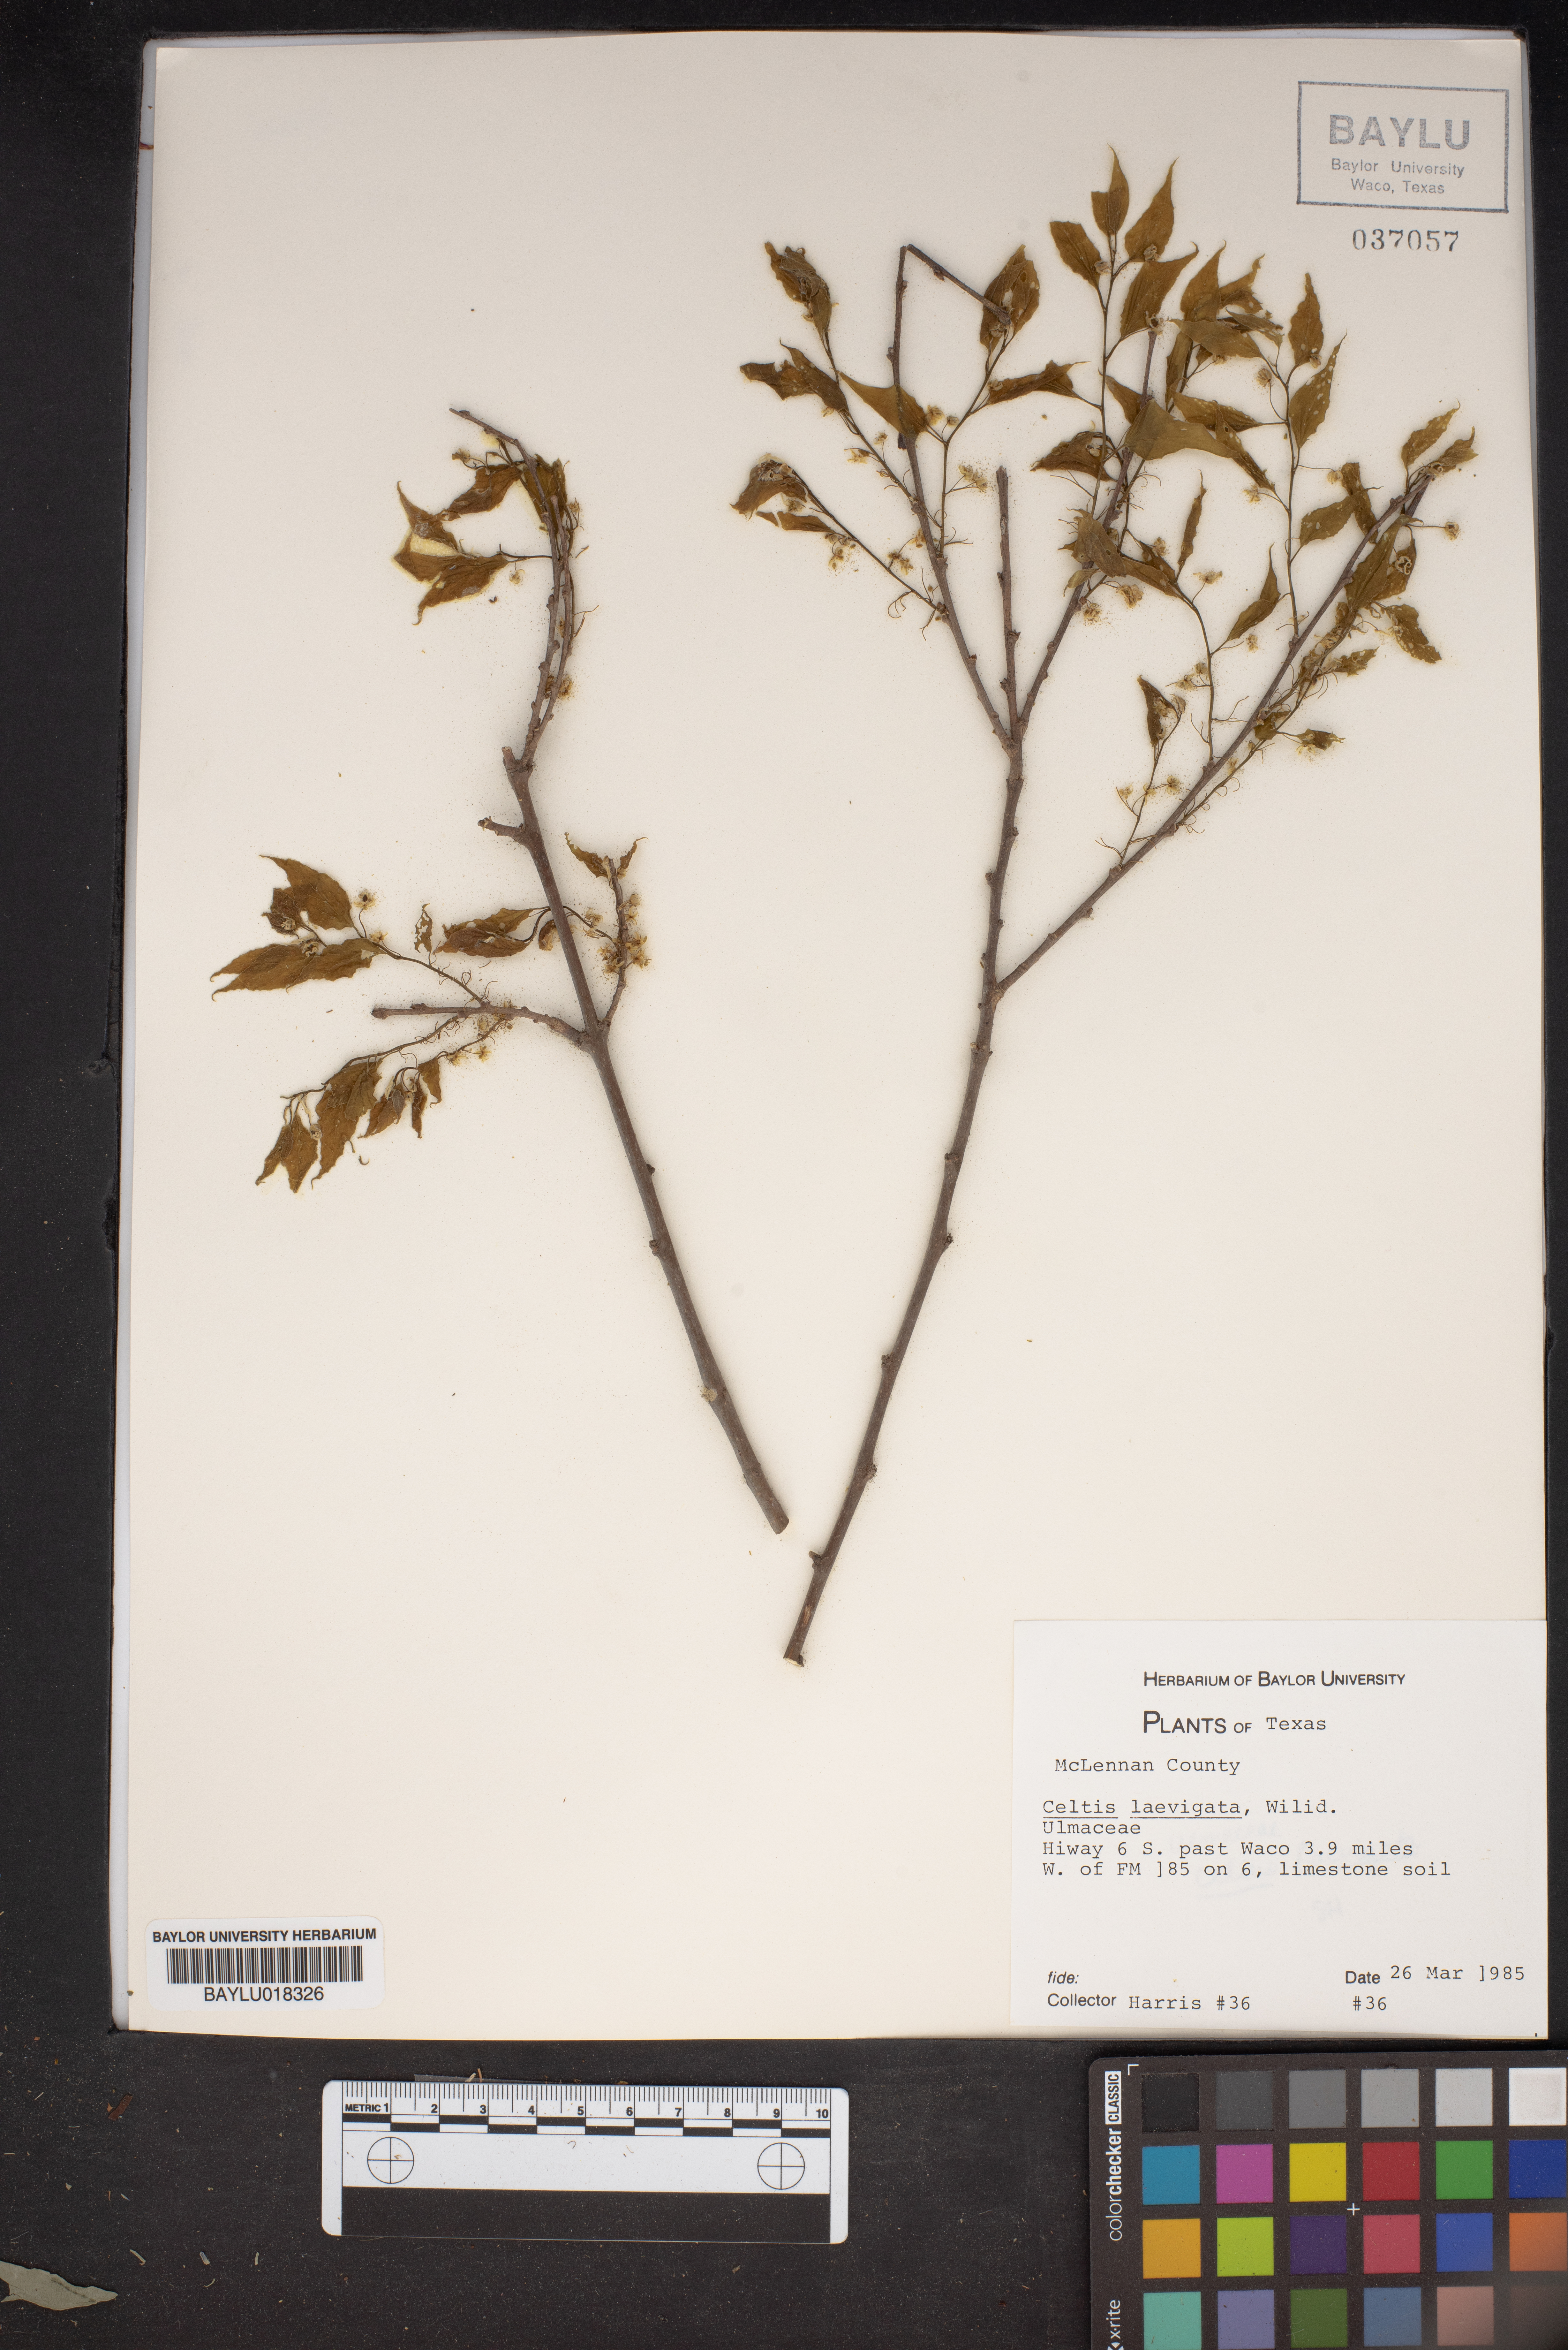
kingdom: Plantae
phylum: Tracheophyta
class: Magnoliopsida
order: Rosales
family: Cannabaceae
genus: Celtis
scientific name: Celtis laevigata
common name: Sugarberry
